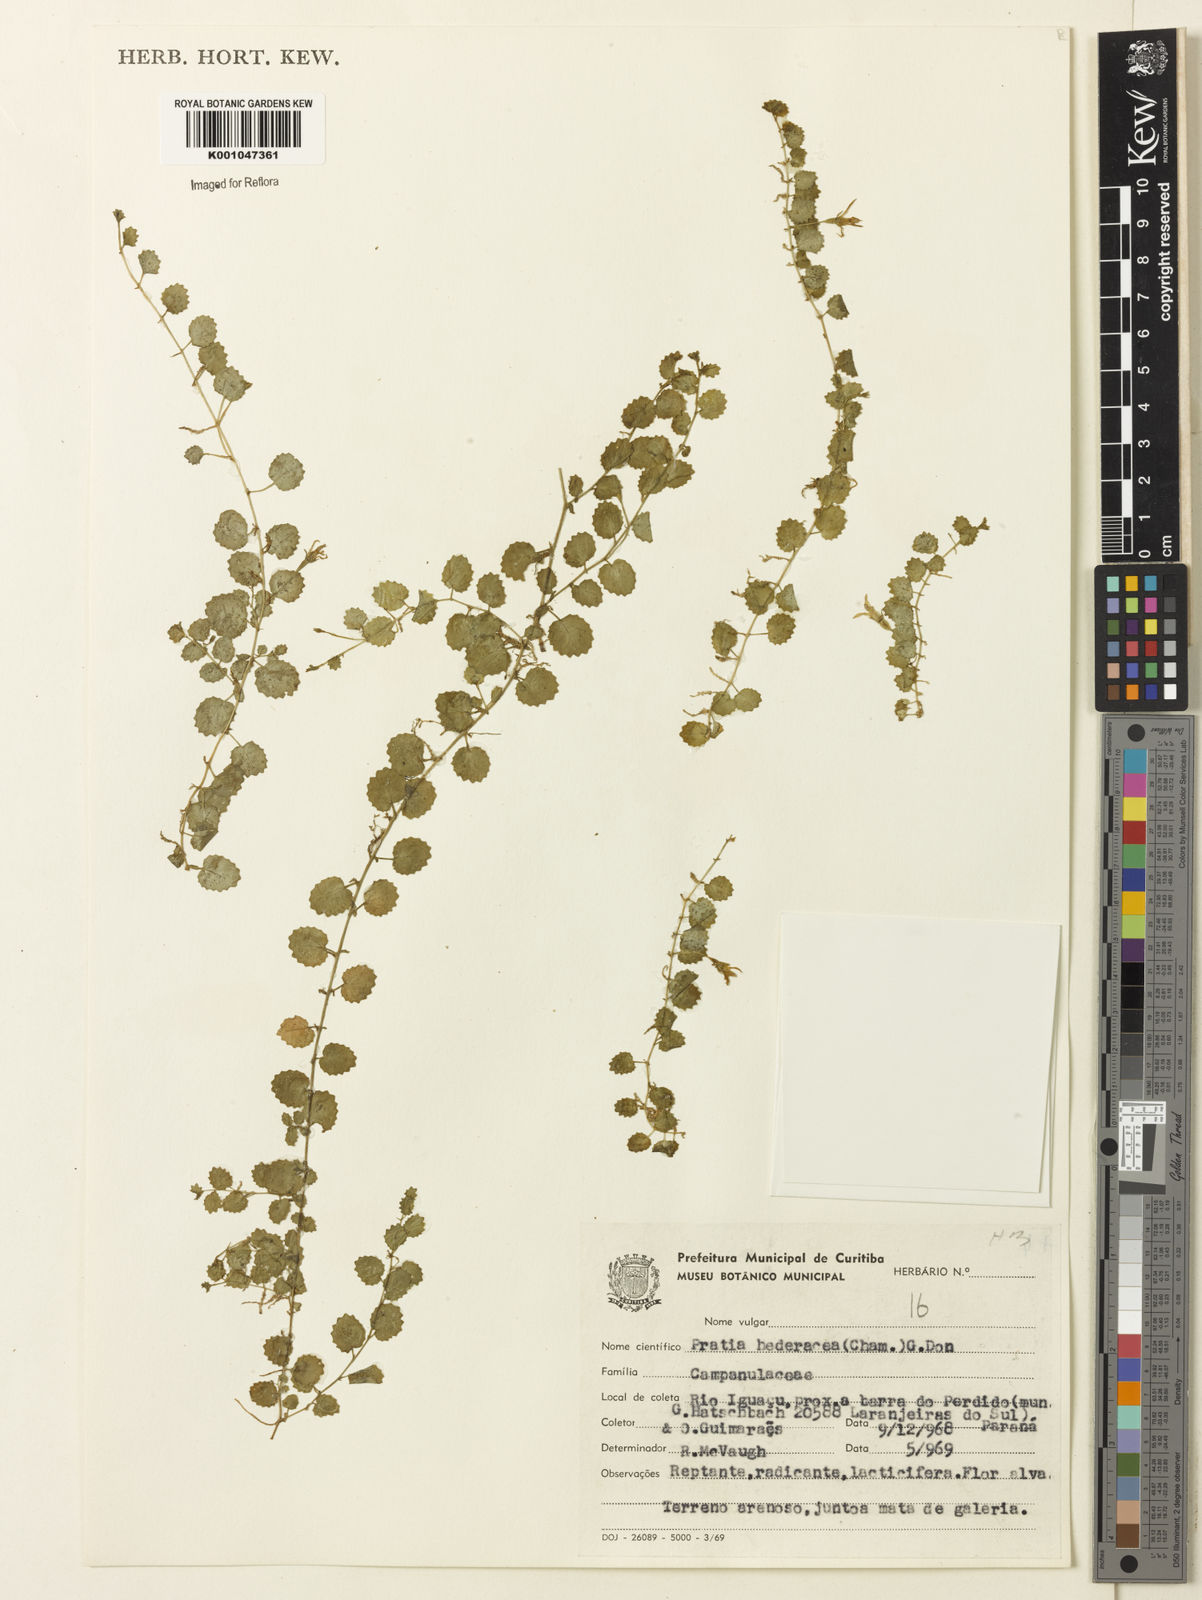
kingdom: Plantae
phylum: Tracheophyta
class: Magnoliopsida
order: Asterales
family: Campanulaceae
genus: Pratia
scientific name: Pratia
